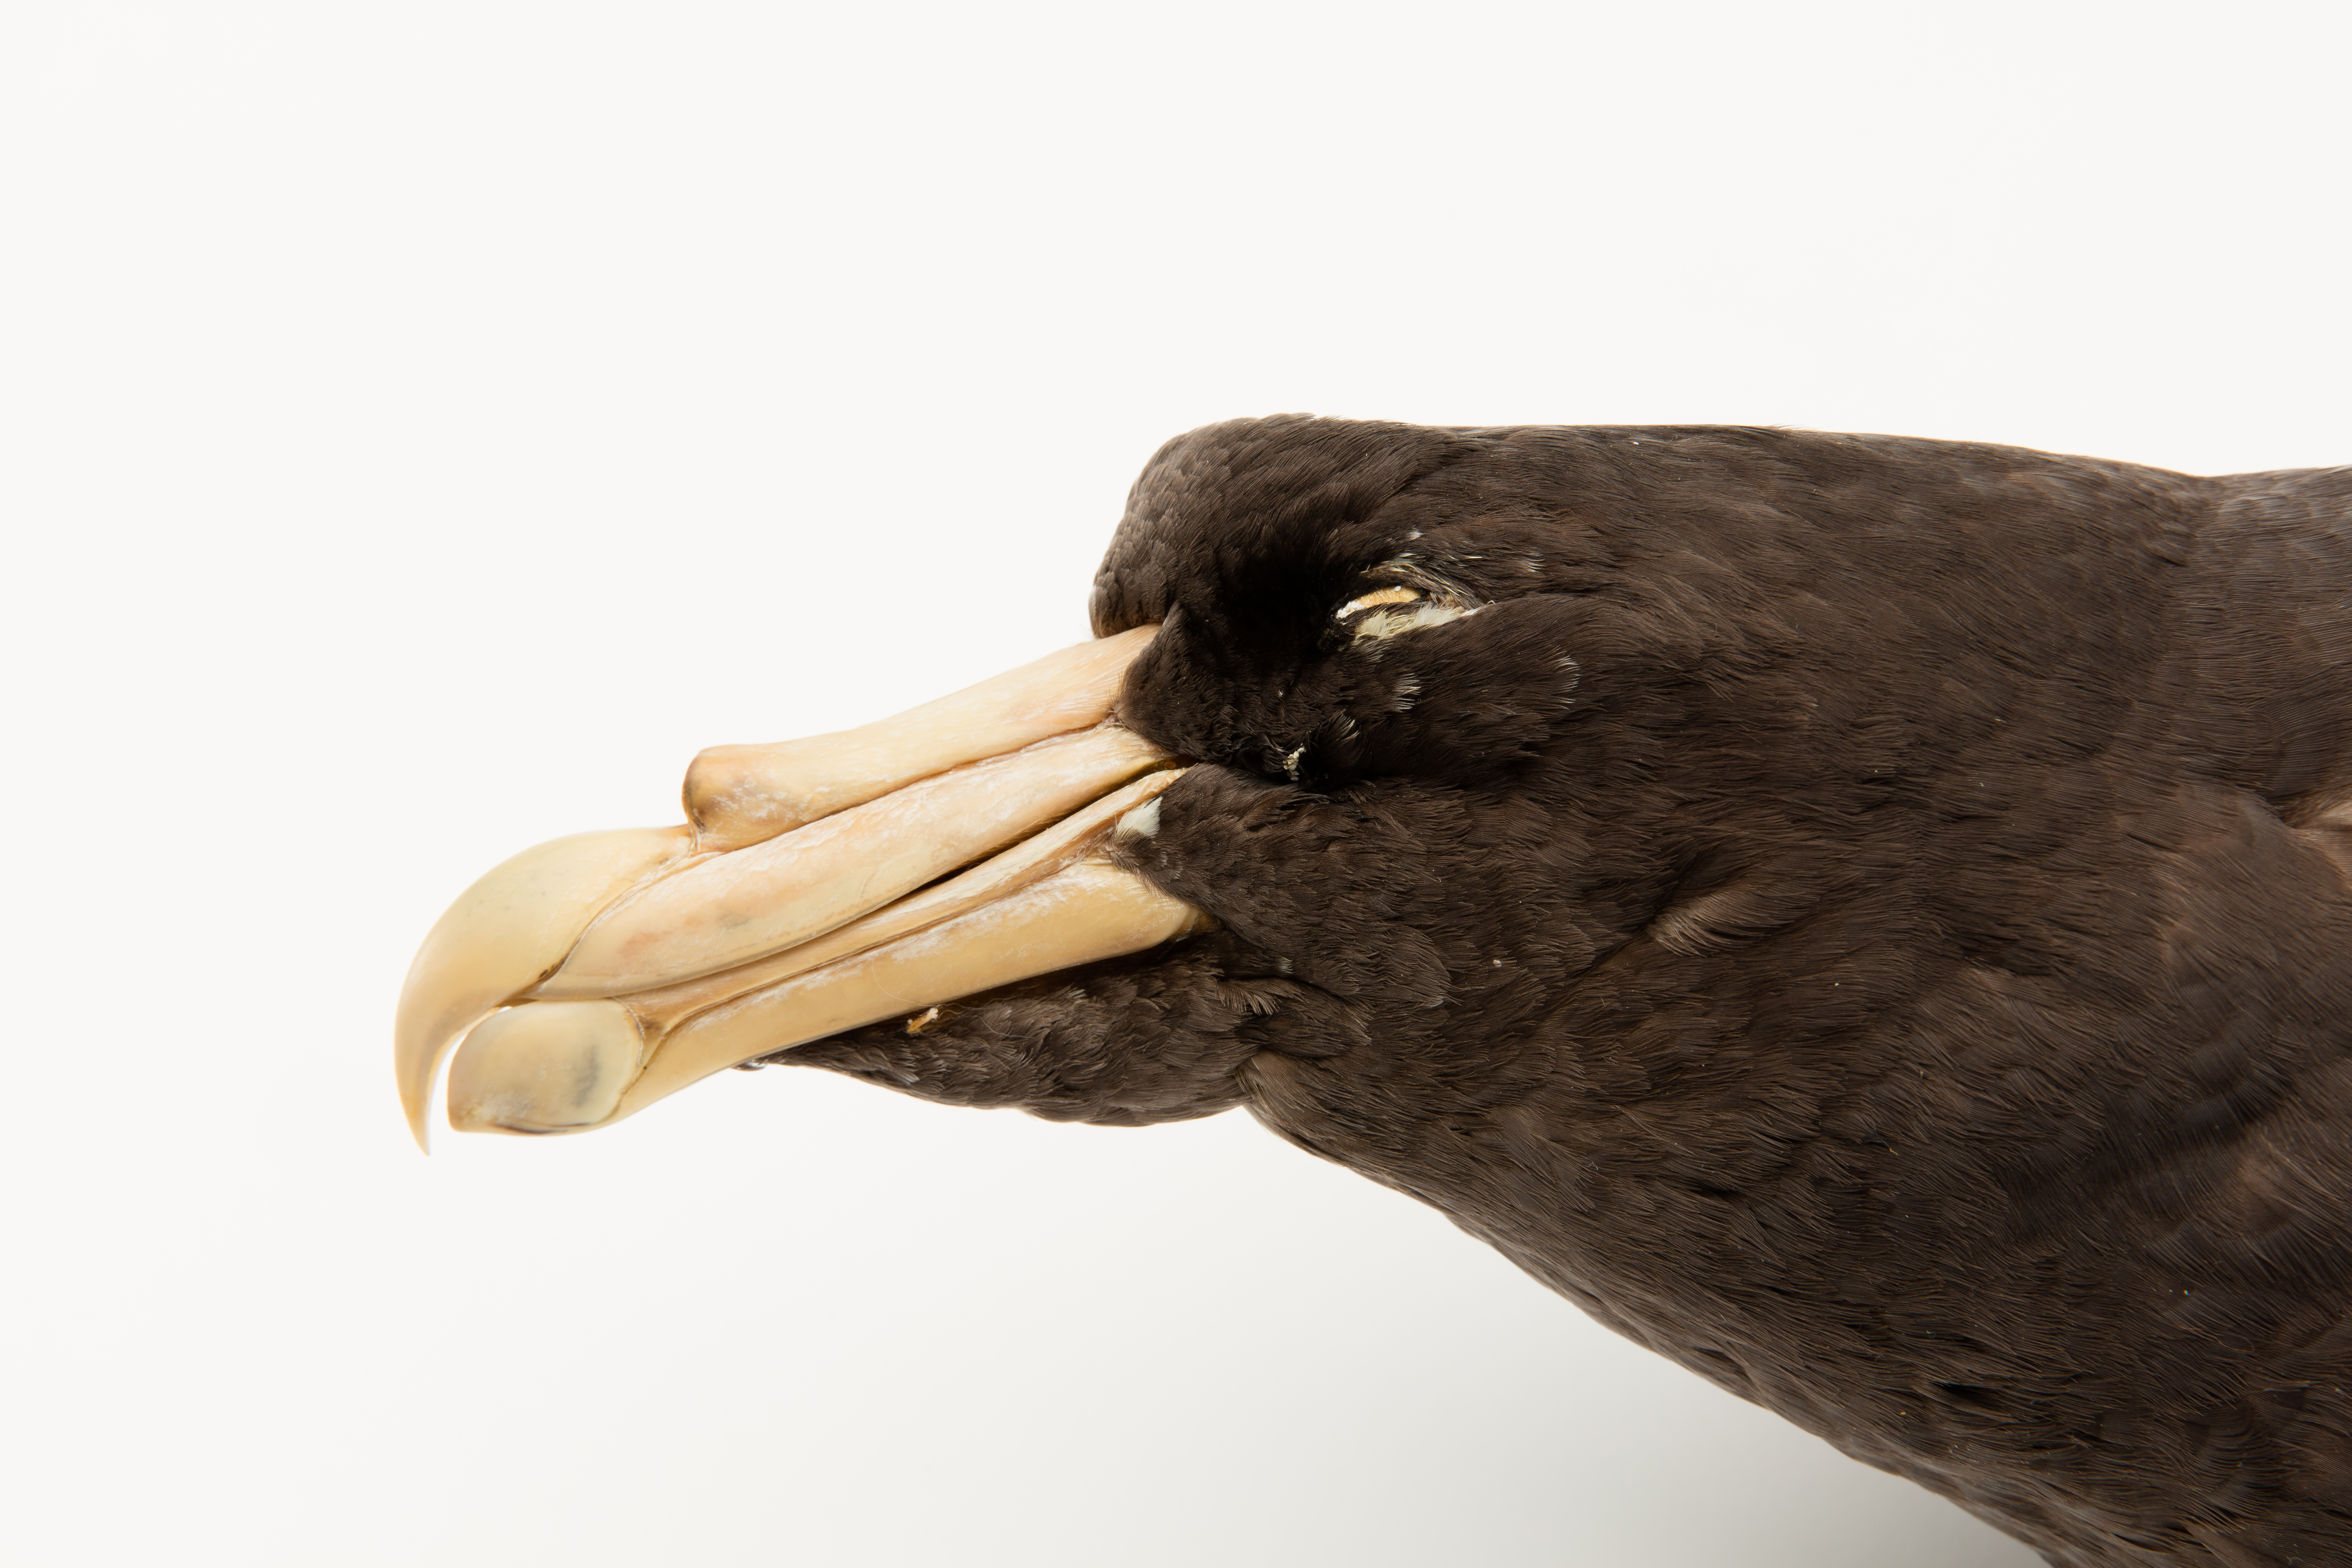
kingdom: Animalia
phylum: Chordata
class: Aves
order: Procellariiformes
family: Procellariidae
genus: Macronectes
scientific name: Macronectes giganteus
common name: Southern giant petrel
